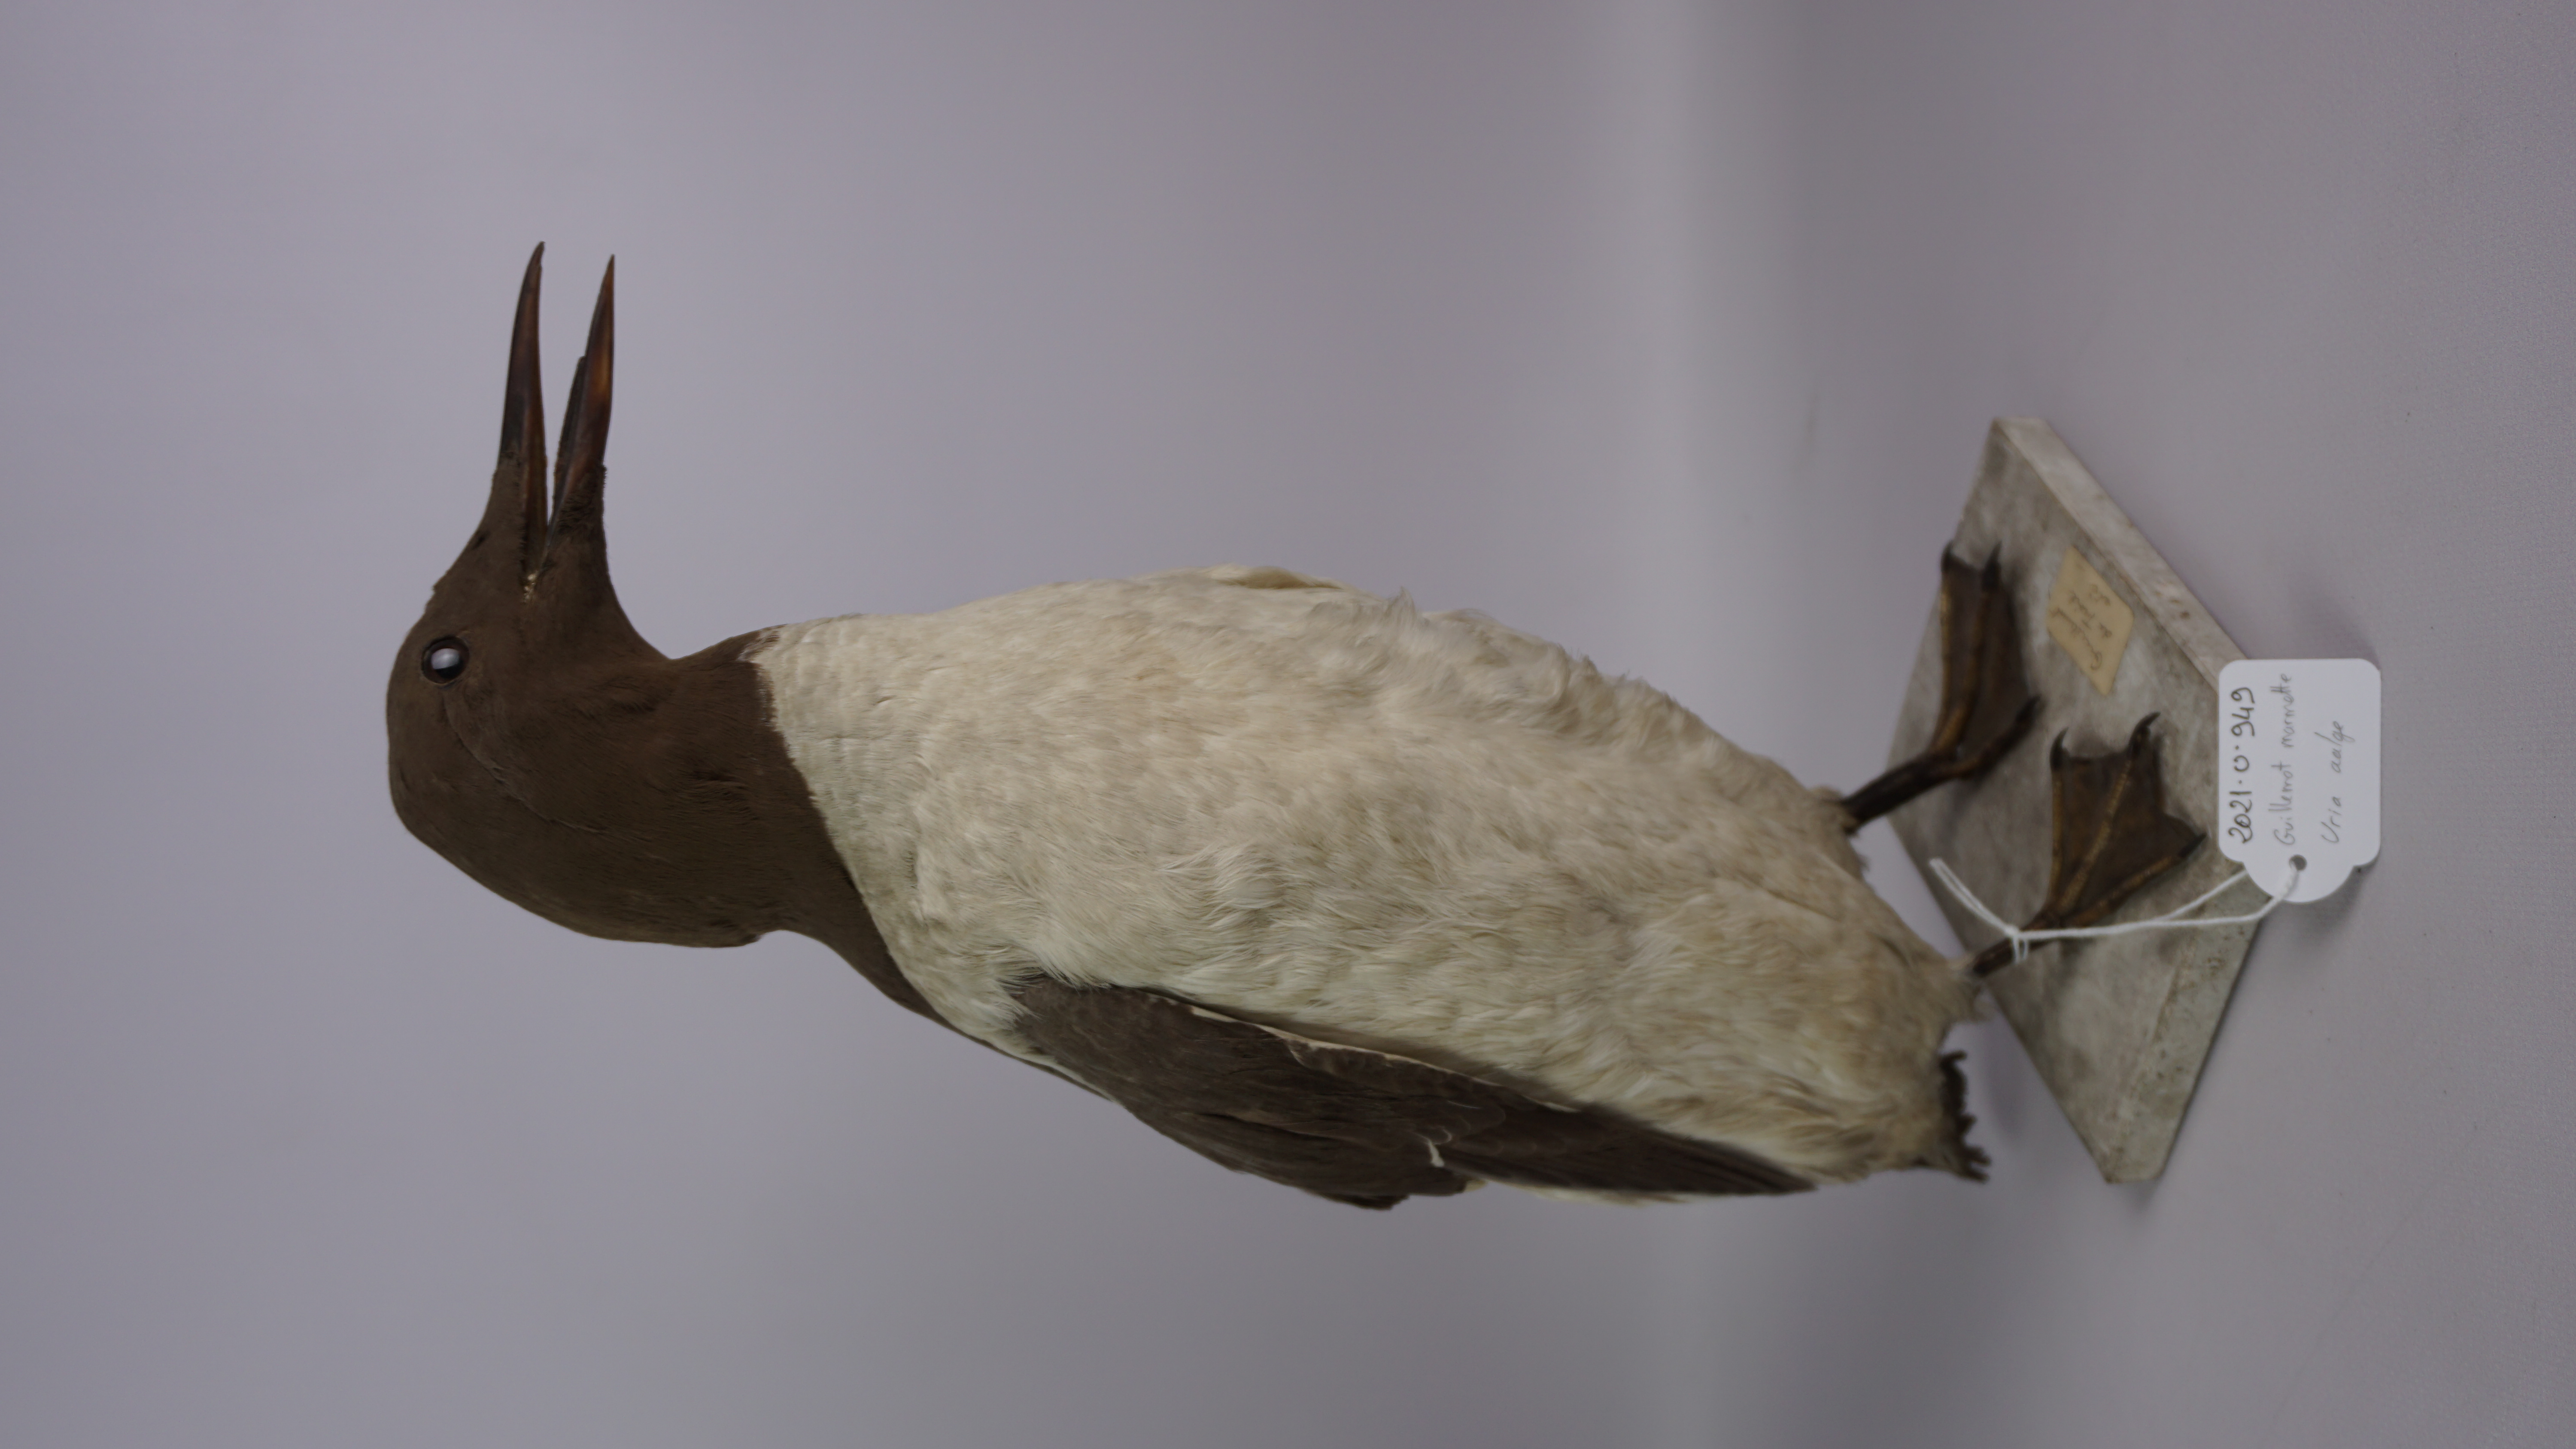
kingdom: Animalia
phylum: Chordata
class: Aves
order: Charadriiformes
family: Alcidae
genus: Uria
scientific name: Uria aalge
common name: Common murre
